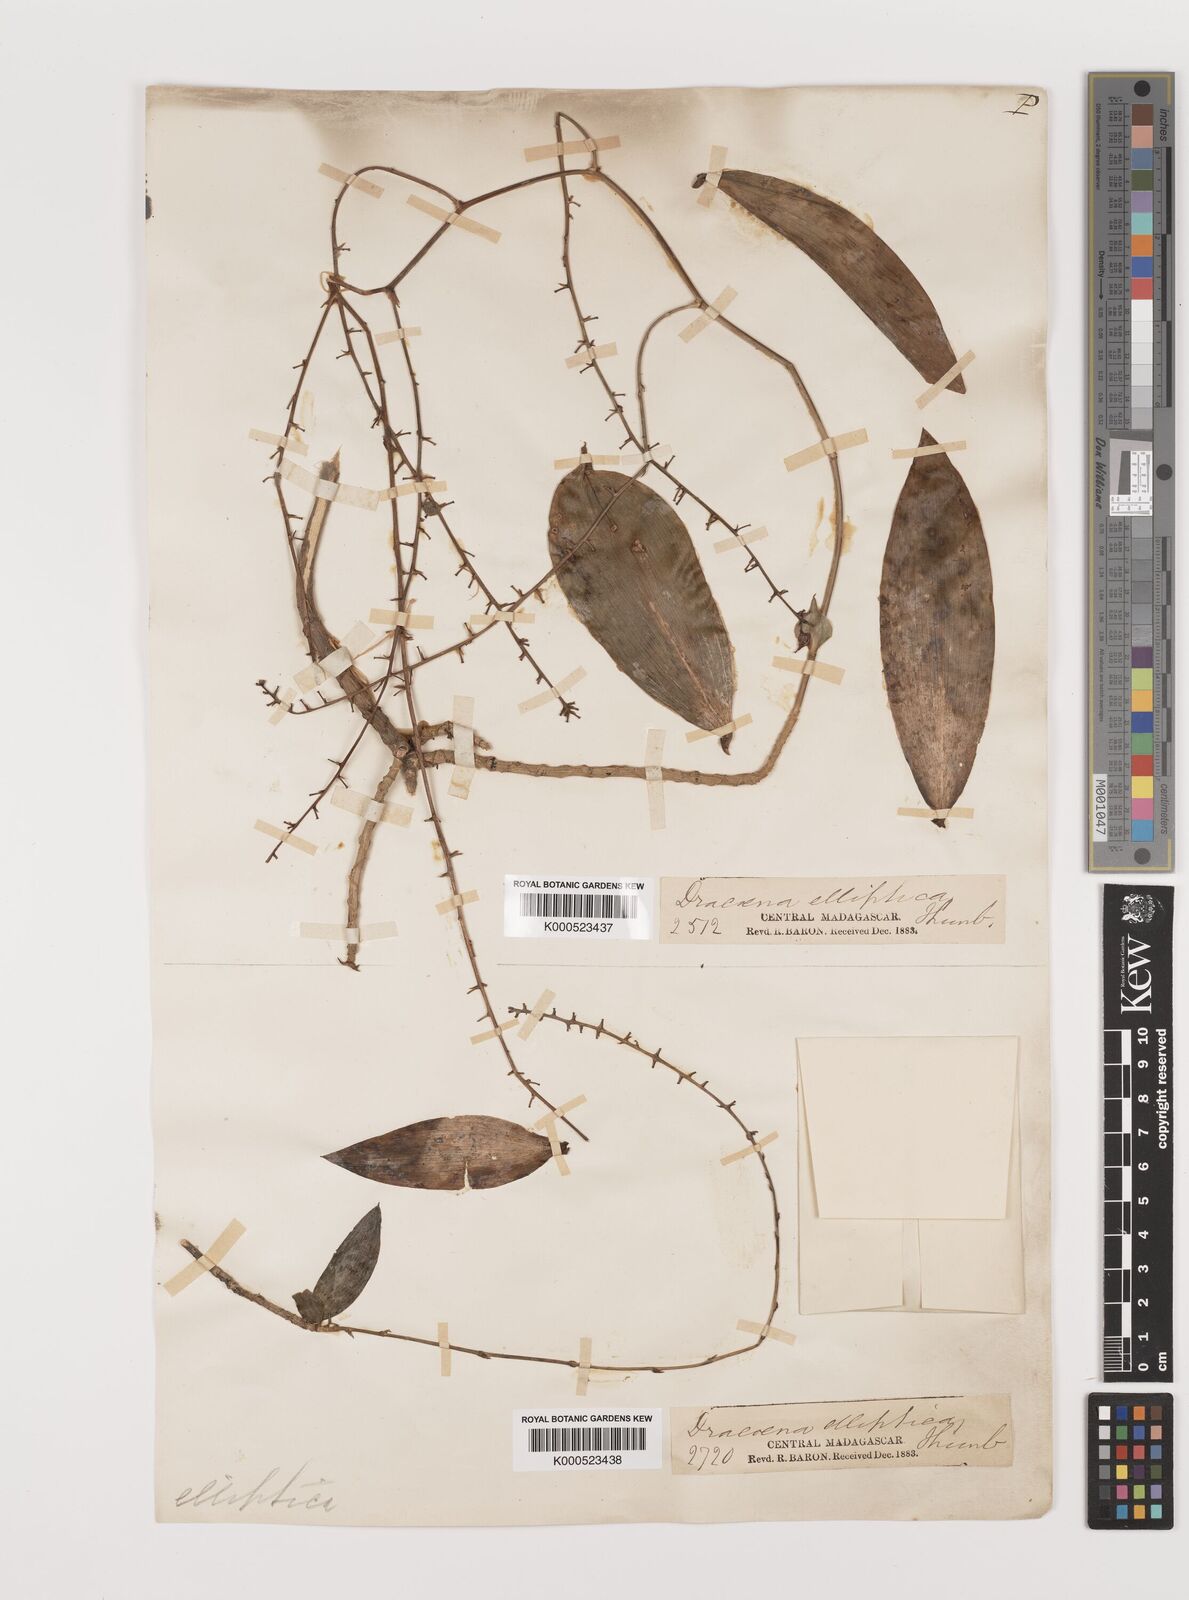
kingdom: Plantae
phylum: Tracheophyta
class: Liliopsida
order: Asparagales
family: Asparagaceae
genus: Dracaena
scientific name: Dracaena elliptica
